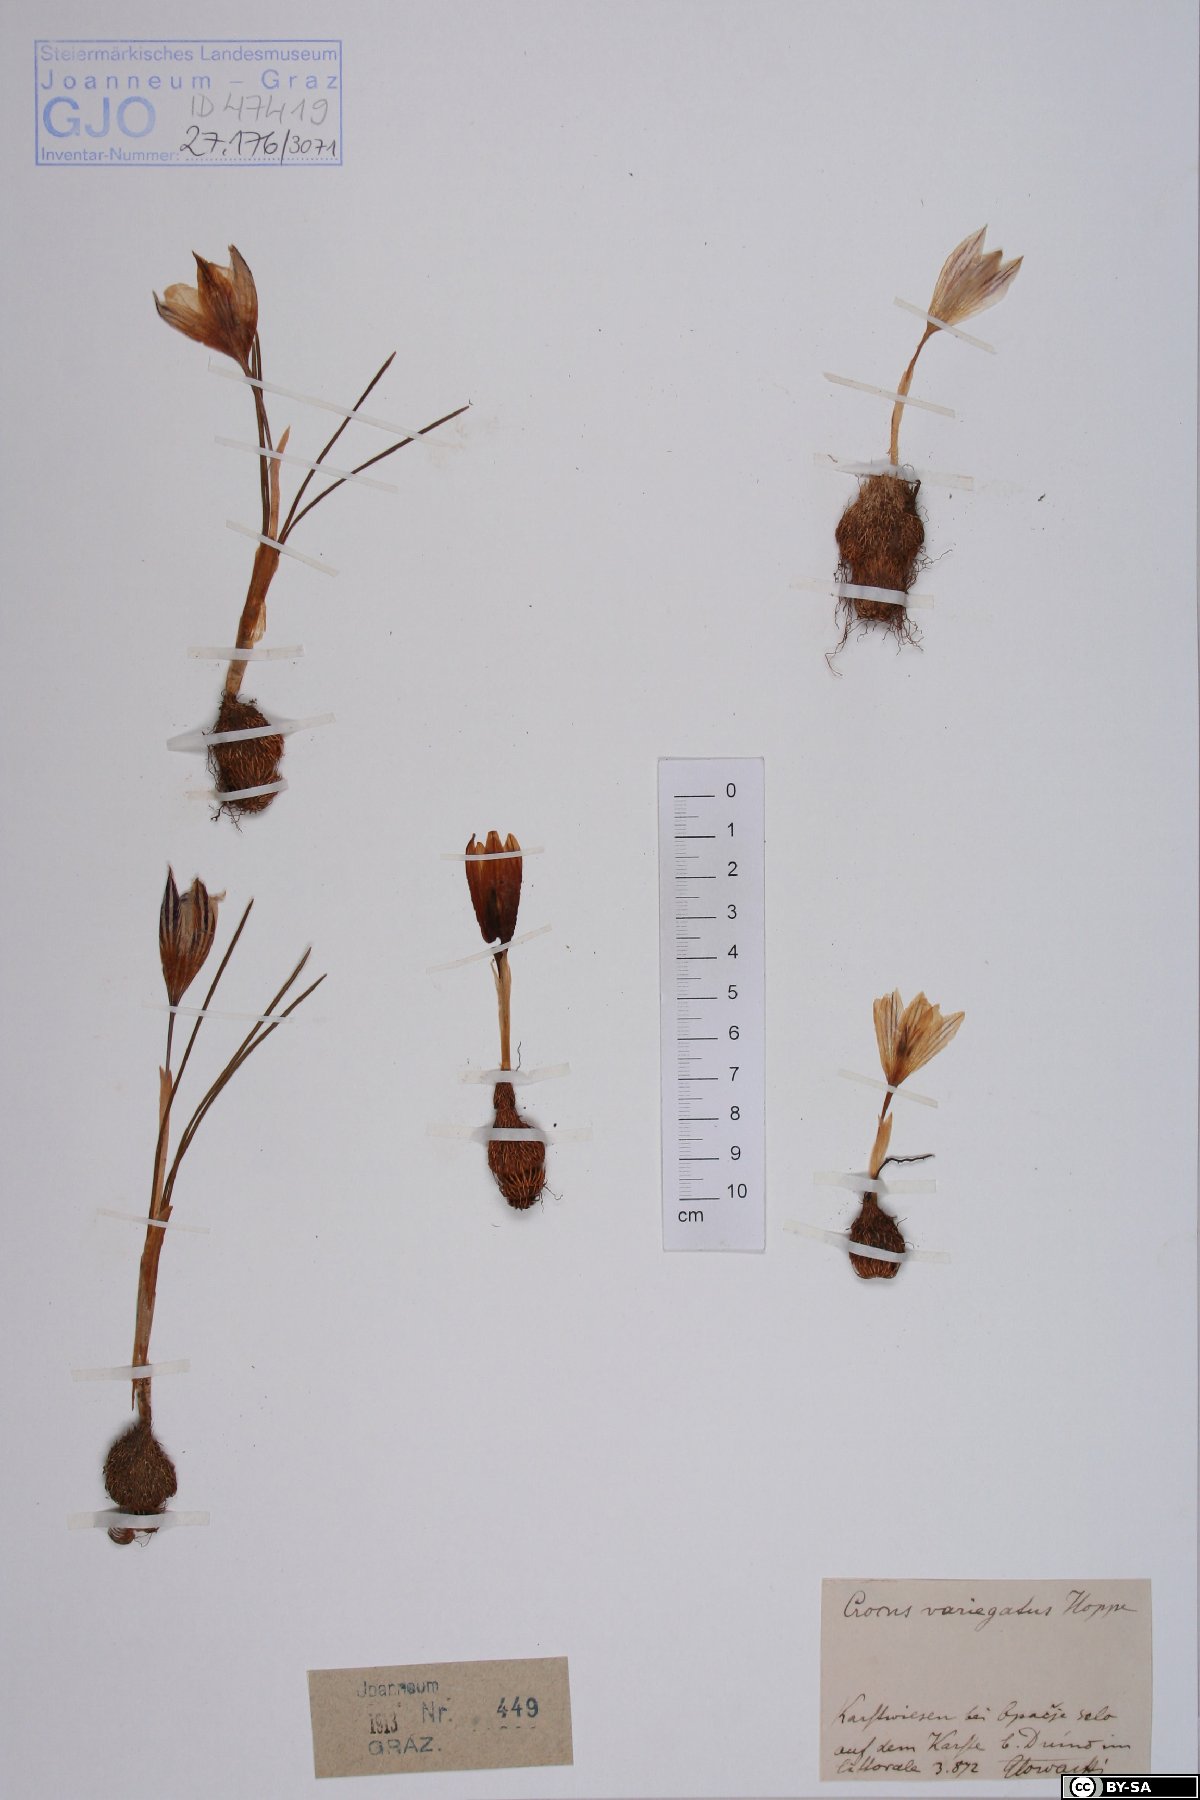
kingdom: Plantae
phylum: Tracheophyta
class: Liliopsida
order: Asparagales
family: Iridaceae
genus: Crocus
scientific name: Crocus variegatus
